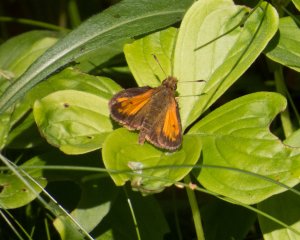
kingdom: Animalia
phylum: Arthropoda
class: Insecta
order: Lepidoptera
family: Hesperiidae
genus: Lon
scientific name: Lon hobomok
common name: Hobomok Skipper
